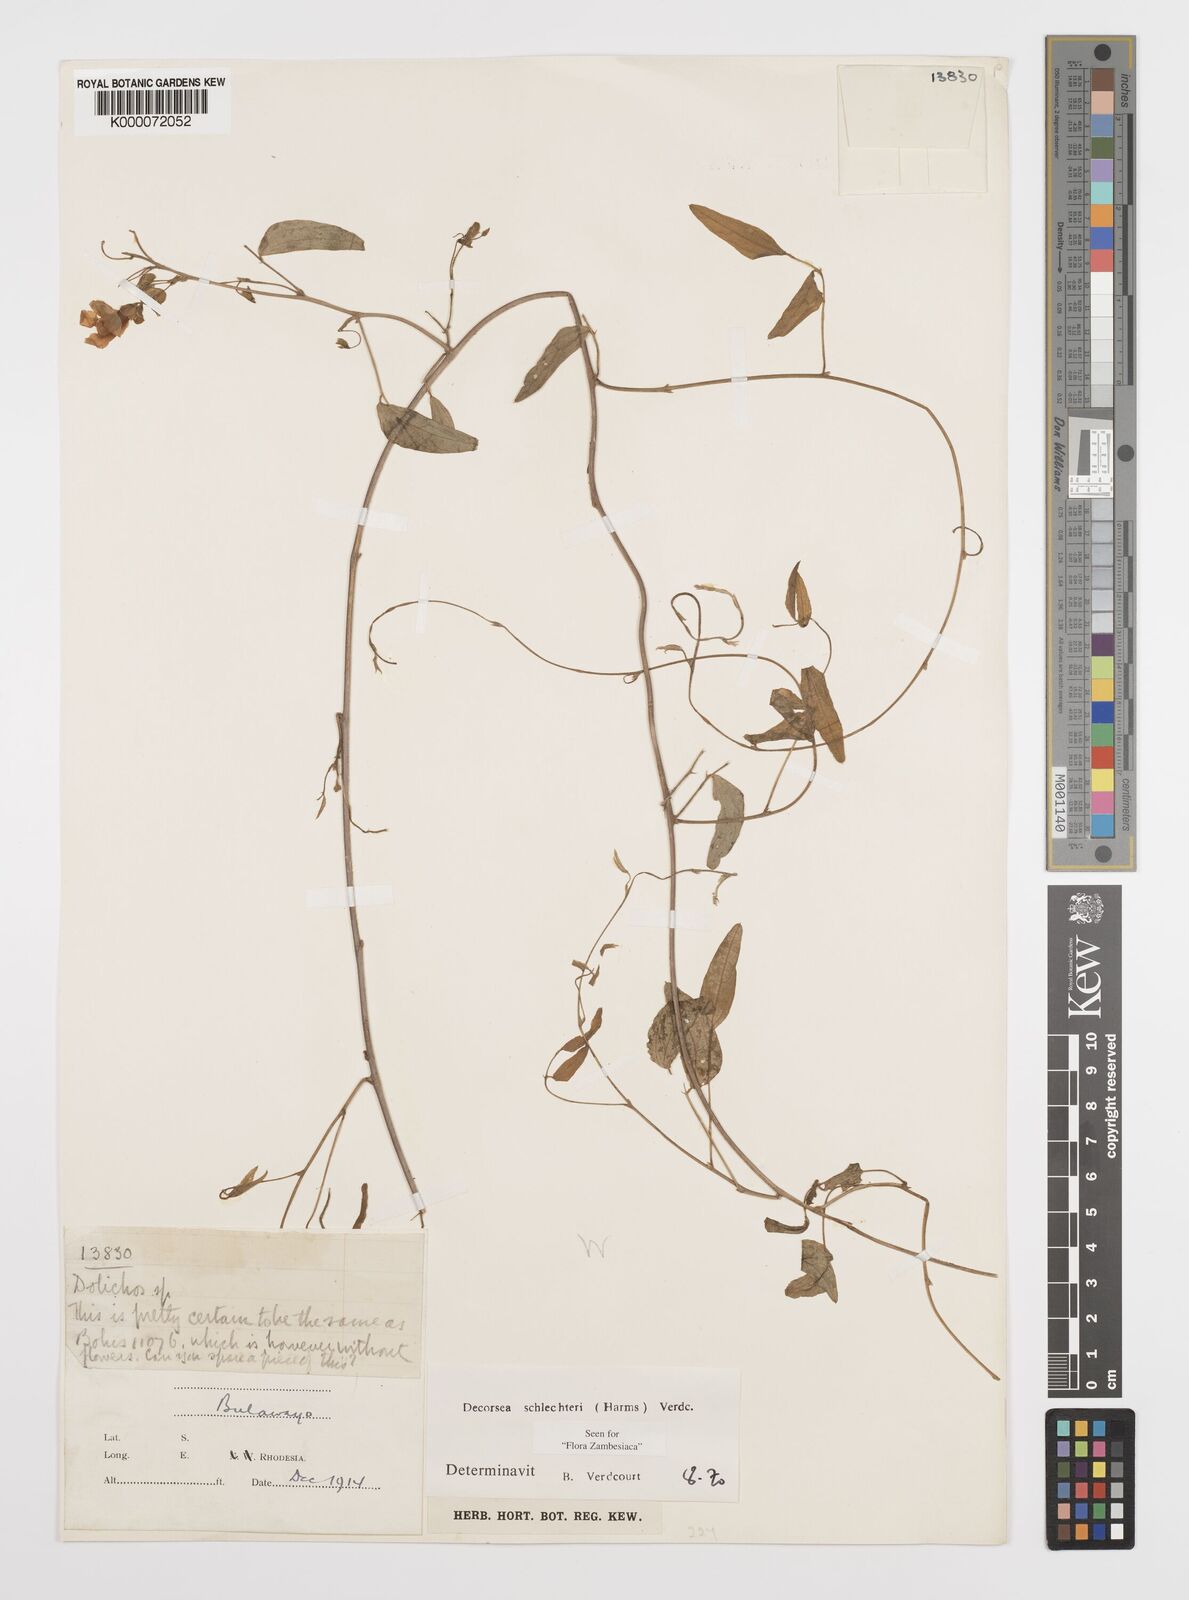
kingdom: Plantae
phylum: Tracheophyta
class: Magnoliopsida
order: Fabales
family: Fabaceae
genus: Decorsea
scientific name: Decorsea schlechteri
